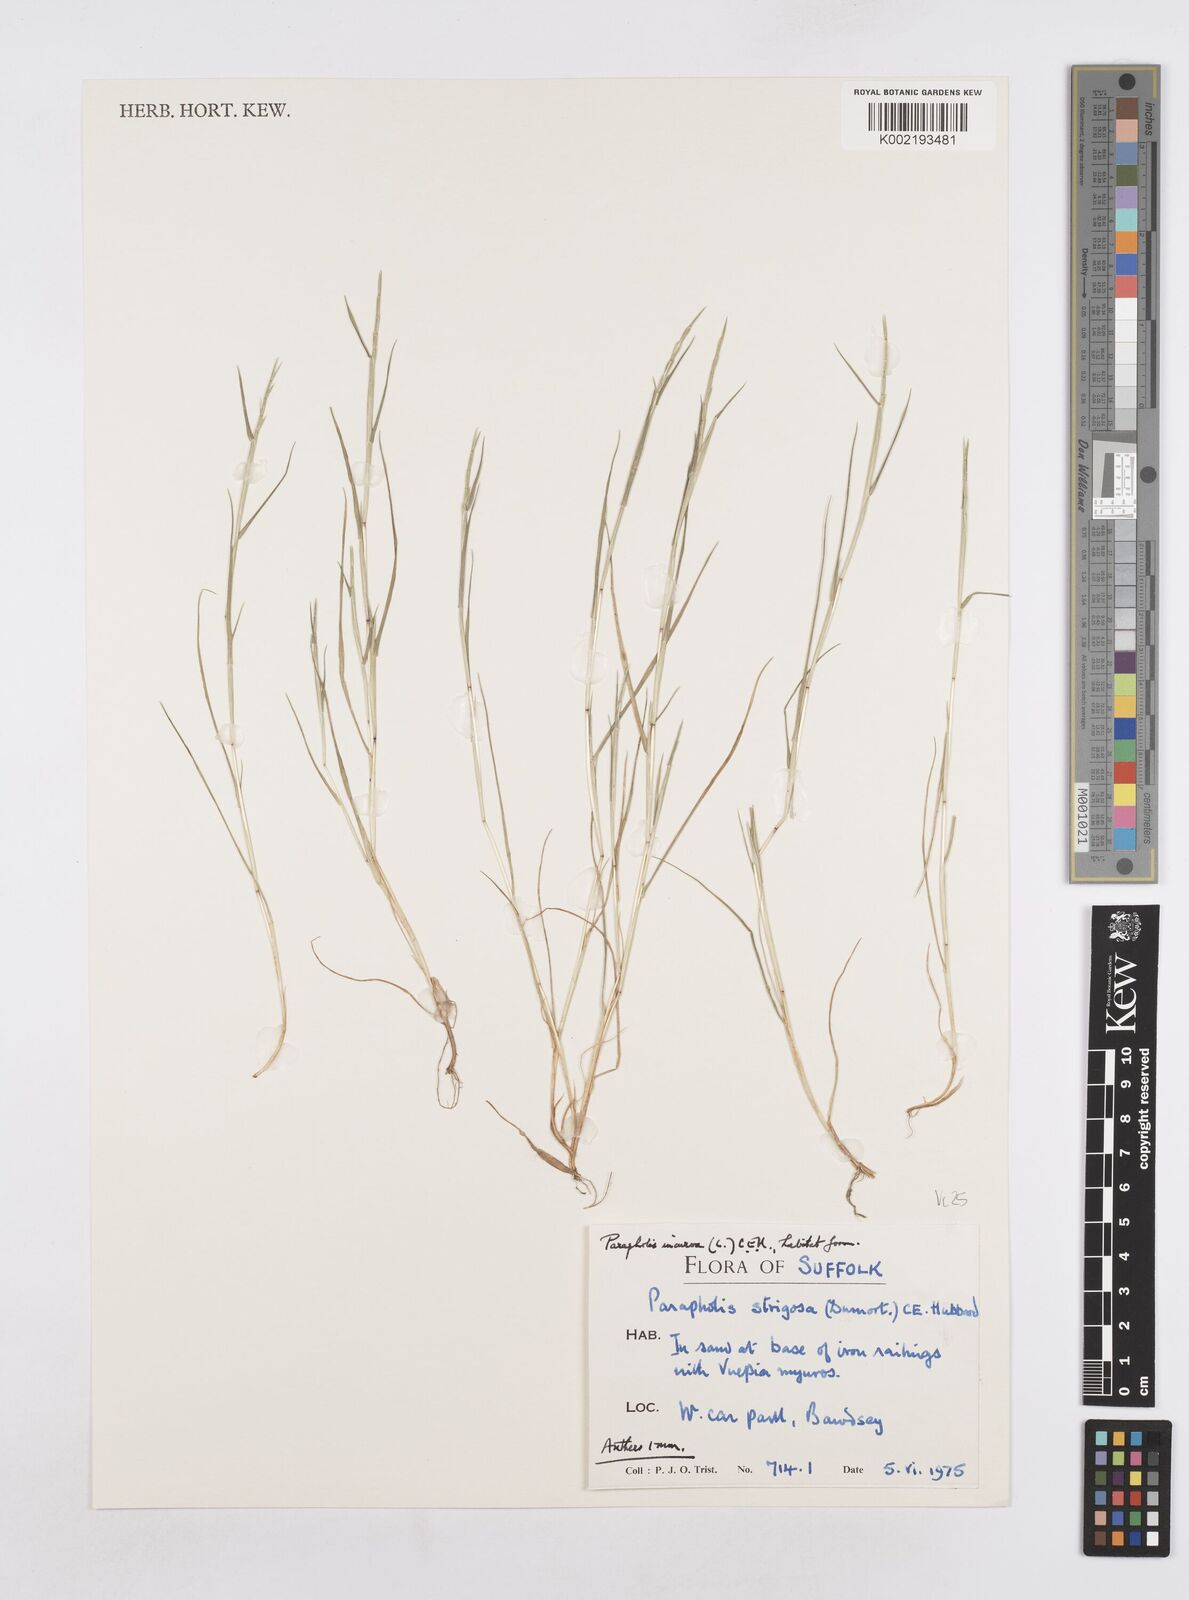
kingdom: Plantae
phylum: Tracheophyta
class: Liliopsida
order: Poales
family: Poaceae
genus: Parapholis
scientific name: Parapholis incurva
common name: Curved sicklegrass
